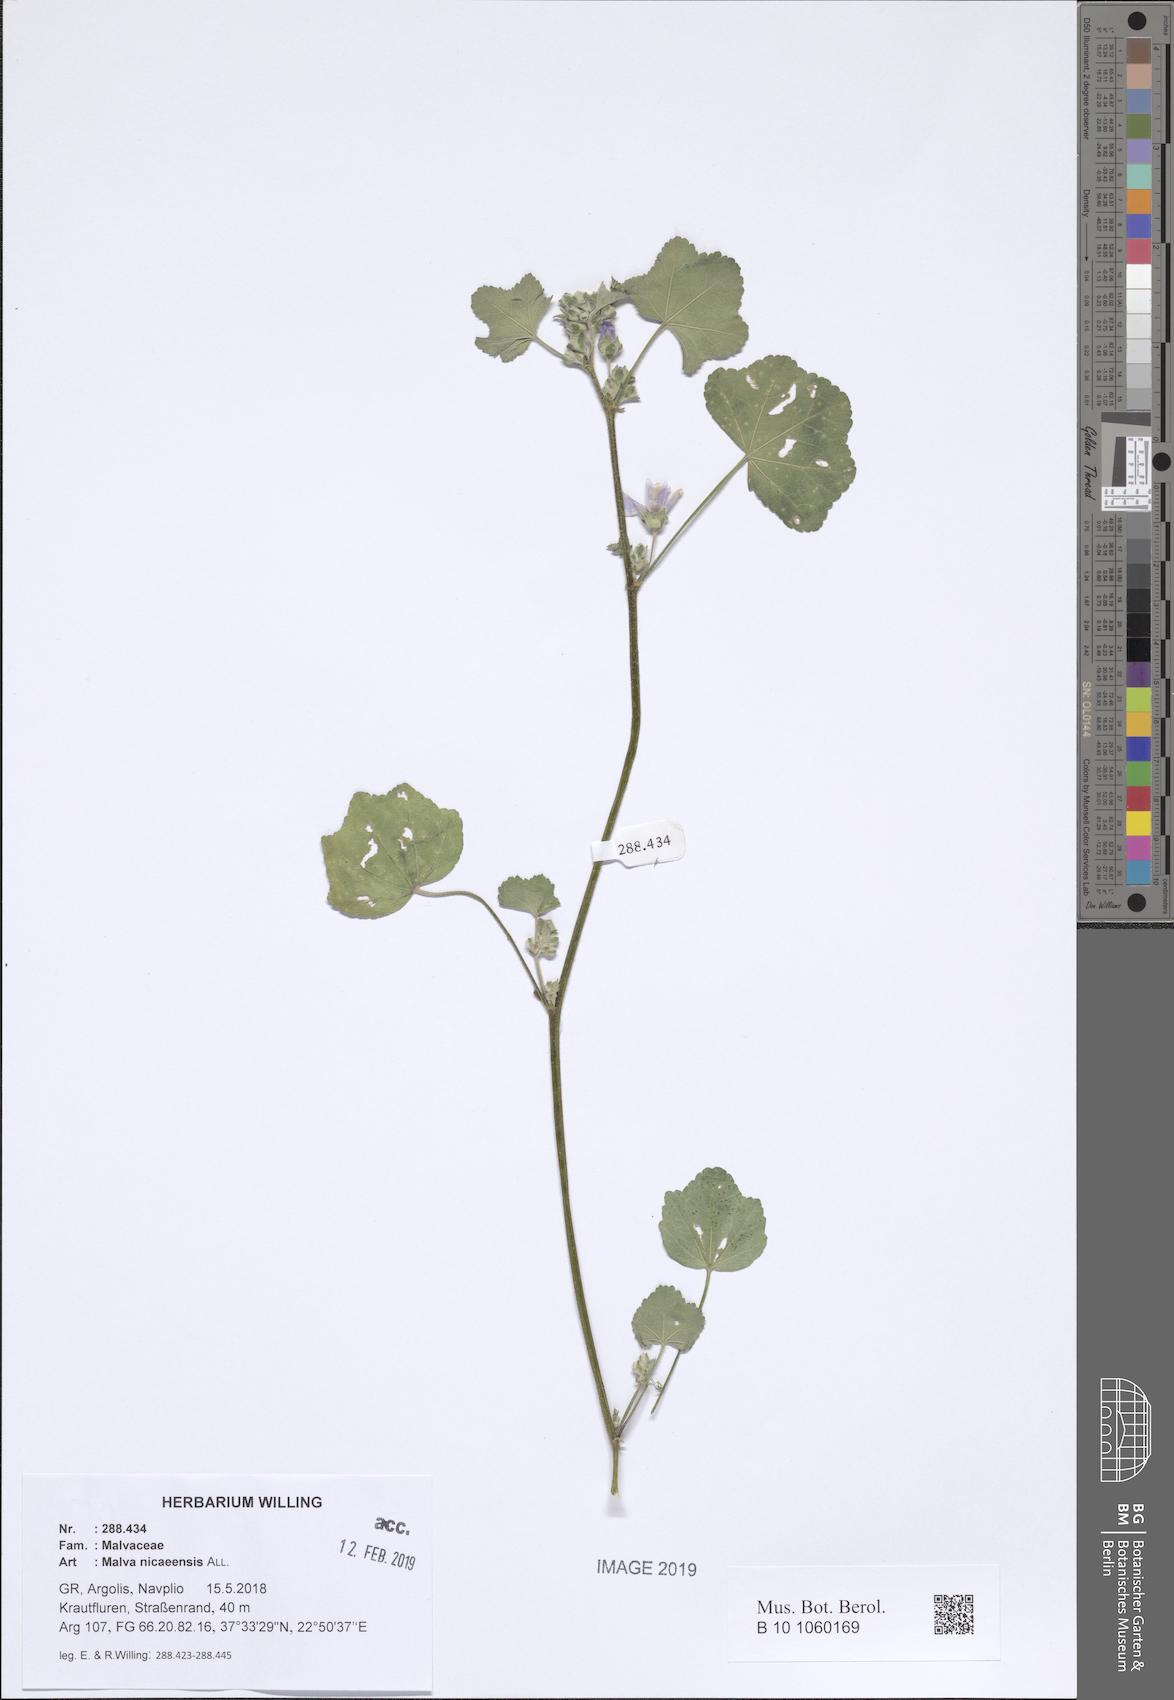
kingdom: Plantae
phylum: Tracheophyta
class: Magnoliopsida
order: Malvales
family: Malvaceae
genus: Malva
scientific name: Malva nicaeensis
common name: French mallow
